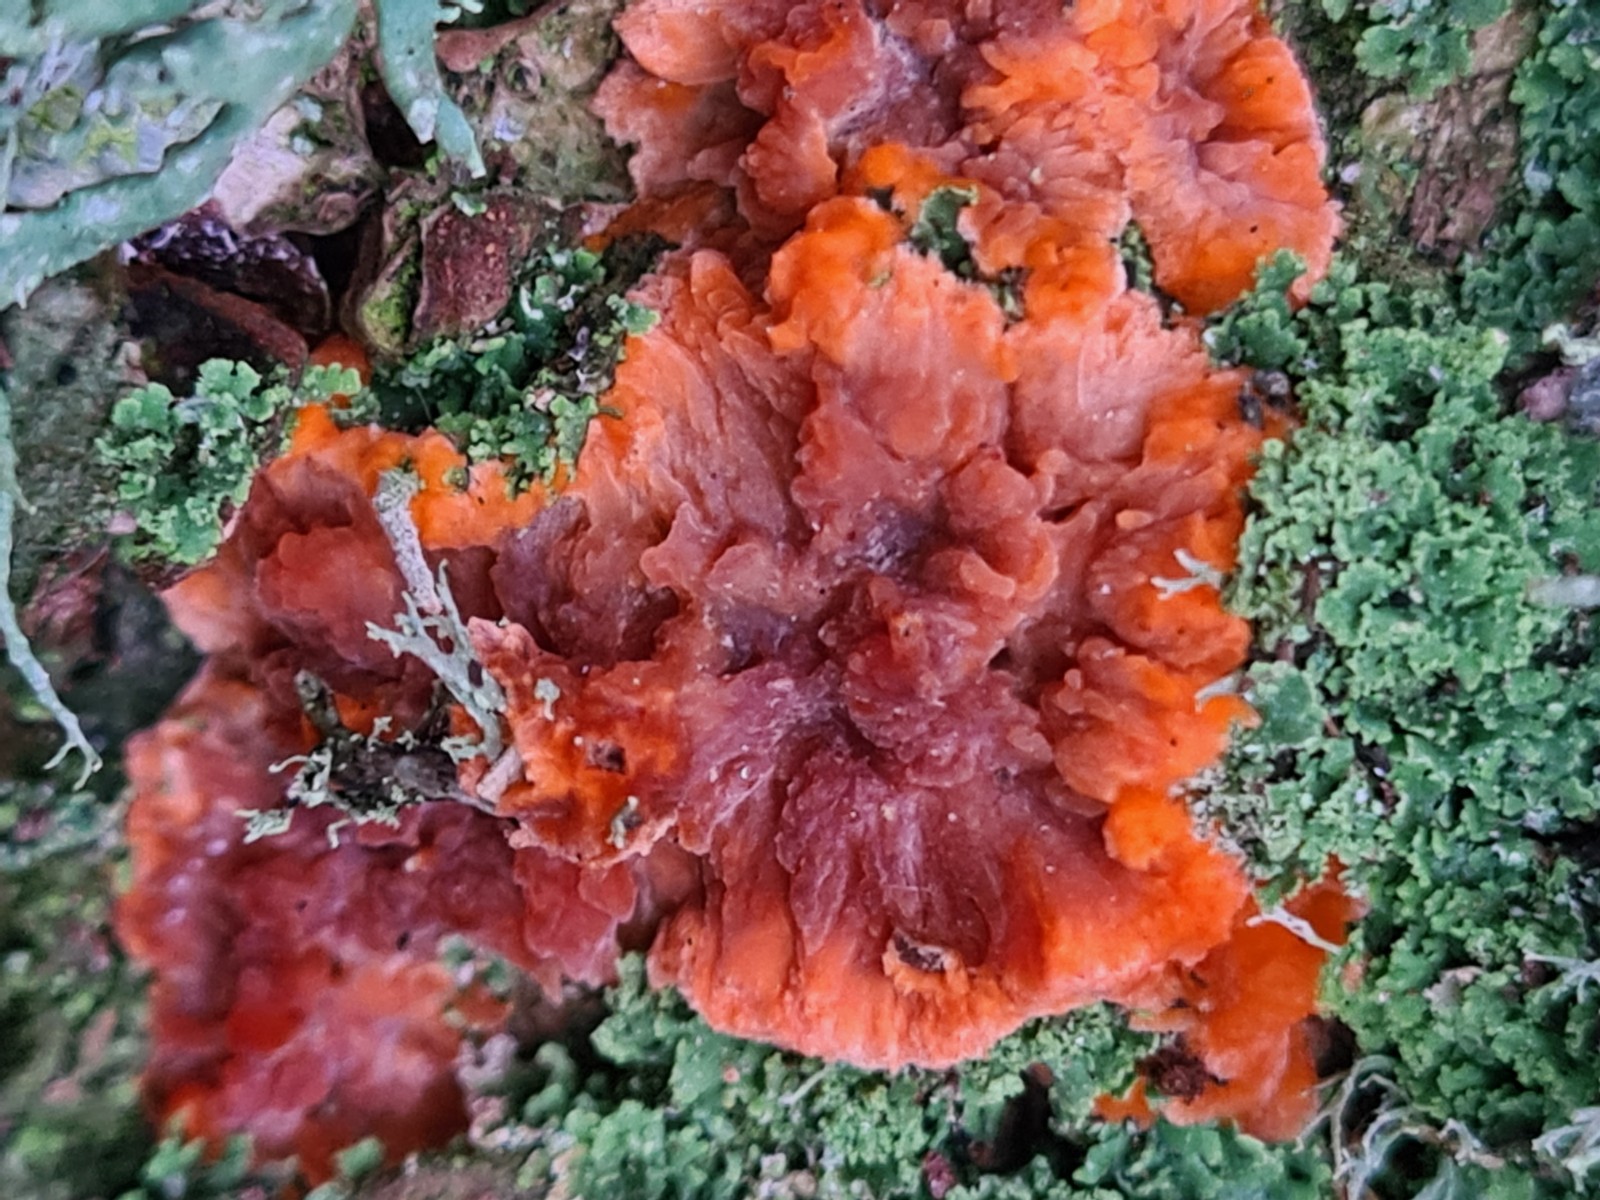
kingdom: Fungi
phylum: Basidiomycota
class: Agaricomycetes
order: Polyporales
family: Meruliaceae
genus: Phlebia
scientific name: Phlebia radiata
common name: stråle-åresvamp
